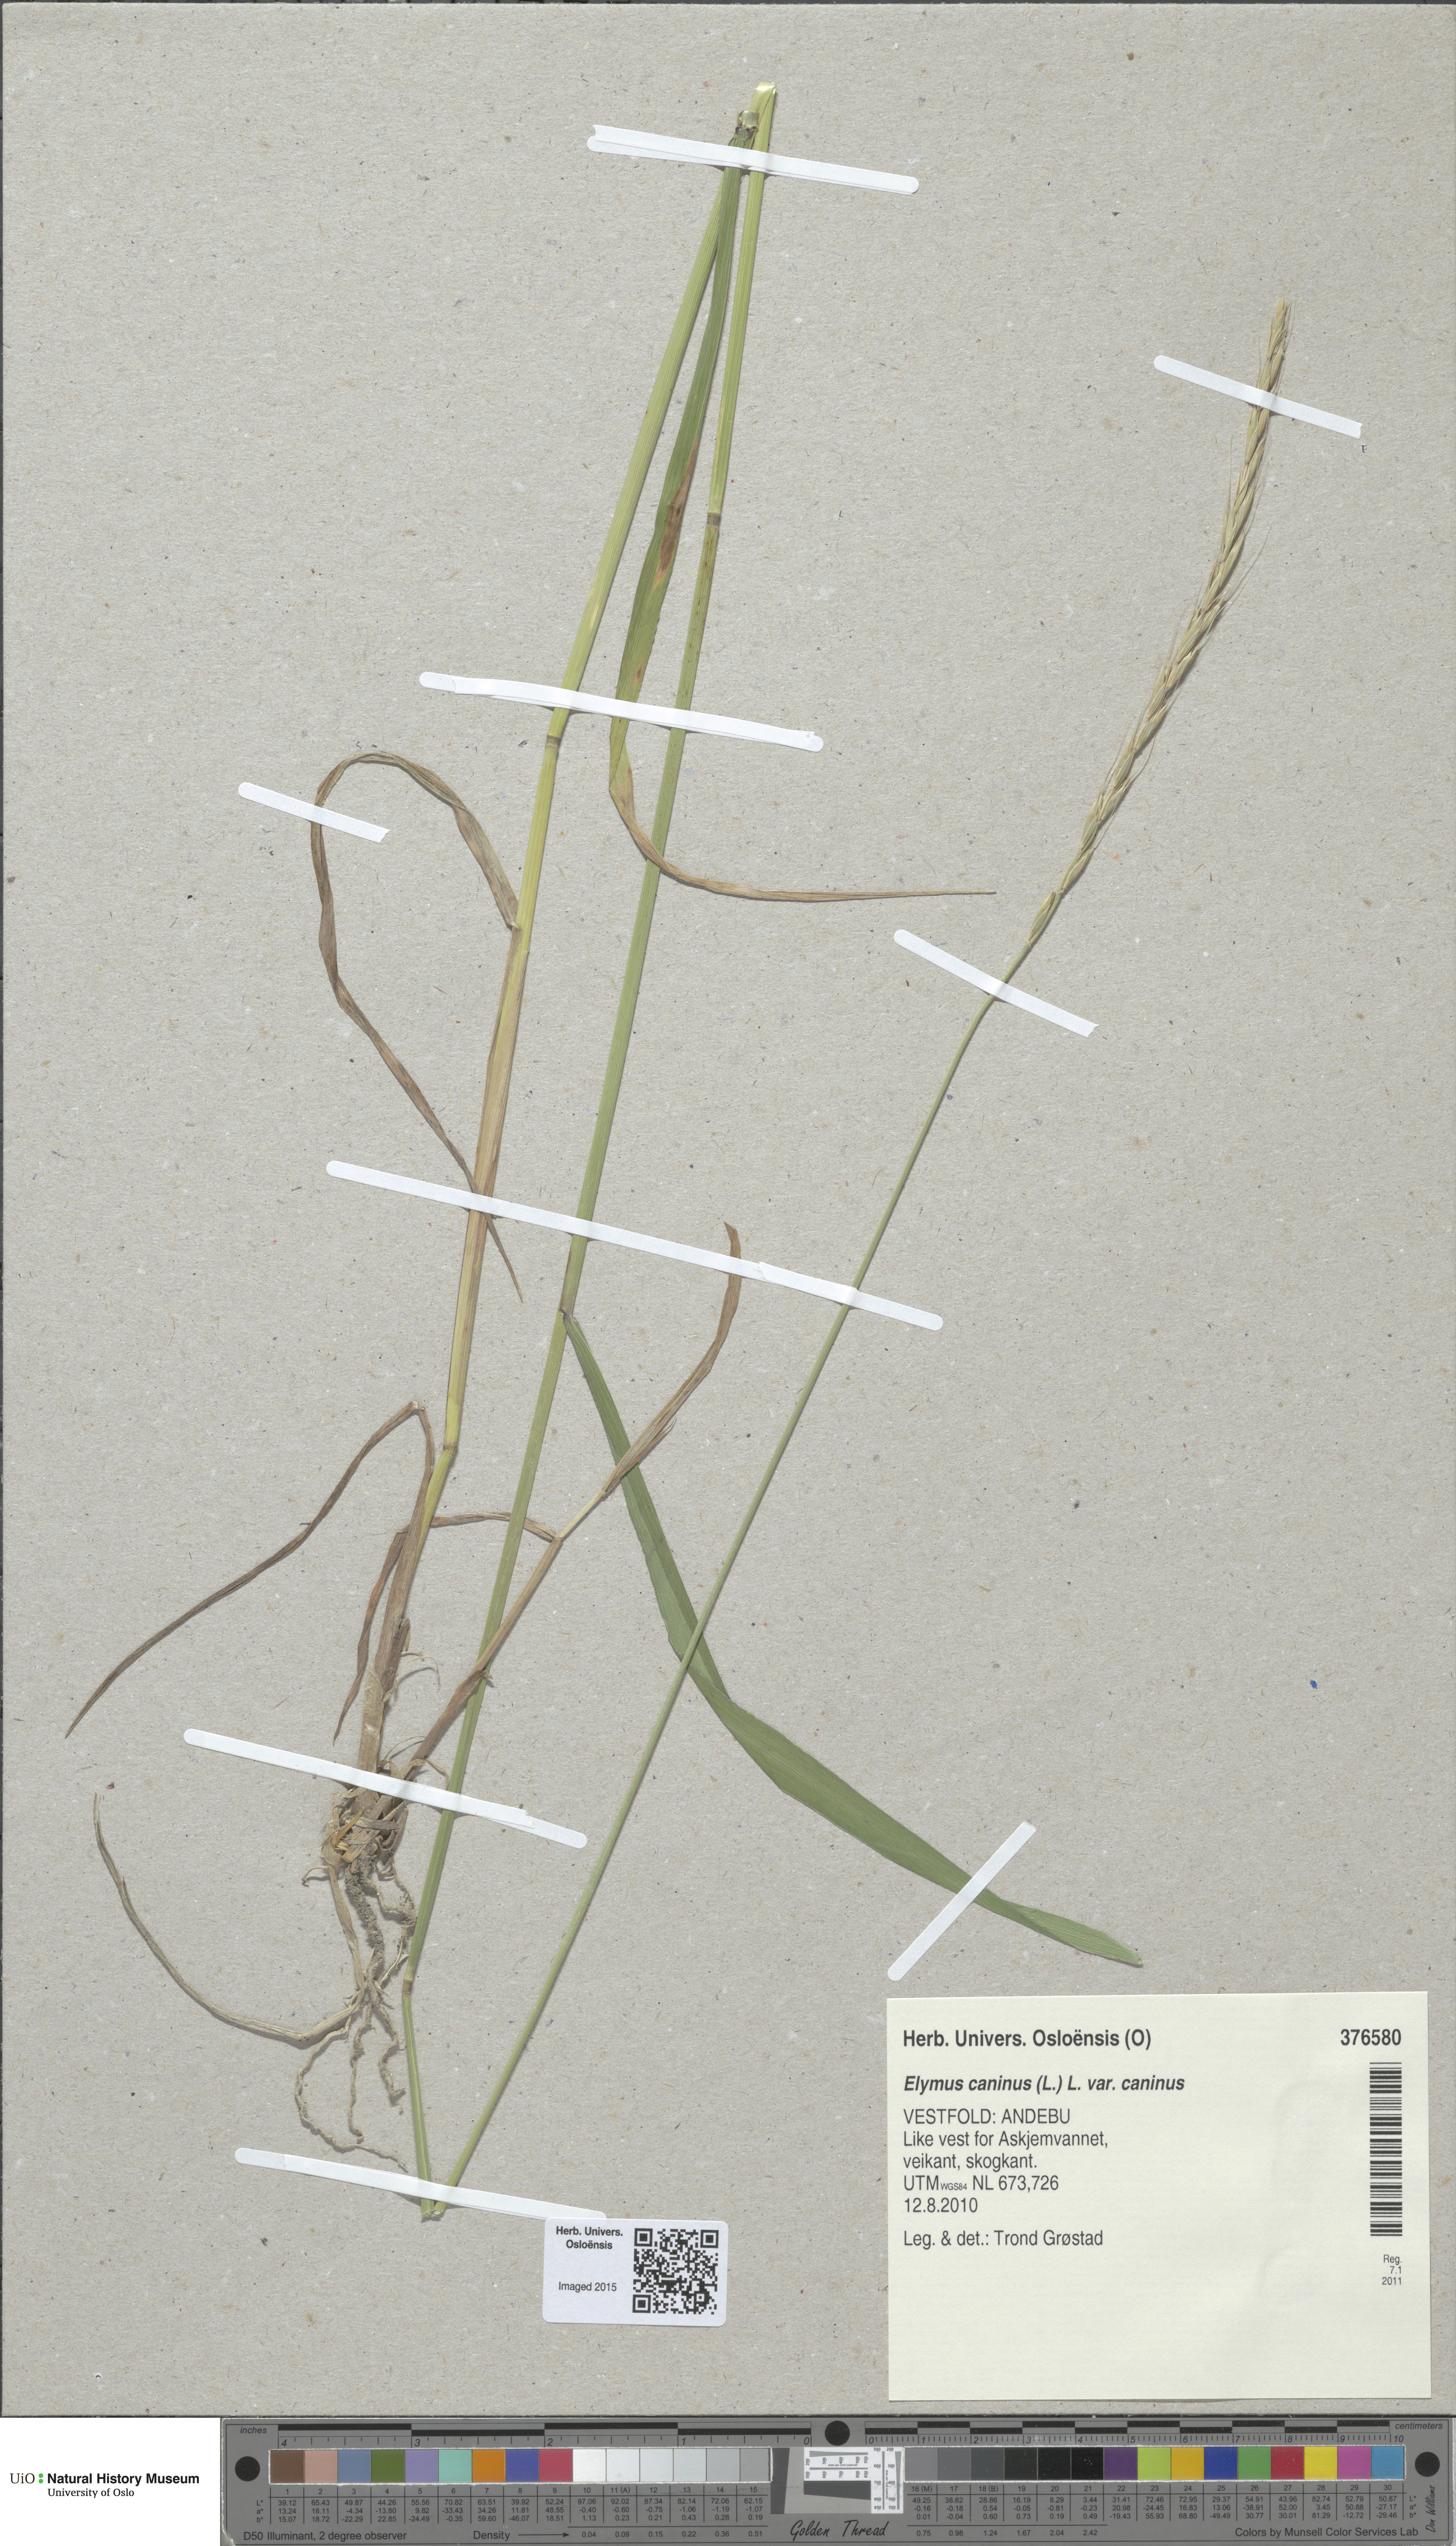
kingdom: Plantae
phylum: Tracheophyta
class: Liliopsida
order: Poales
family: Poaceae
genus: Elymus
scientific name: Elymus caninus
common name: Bearded couch
